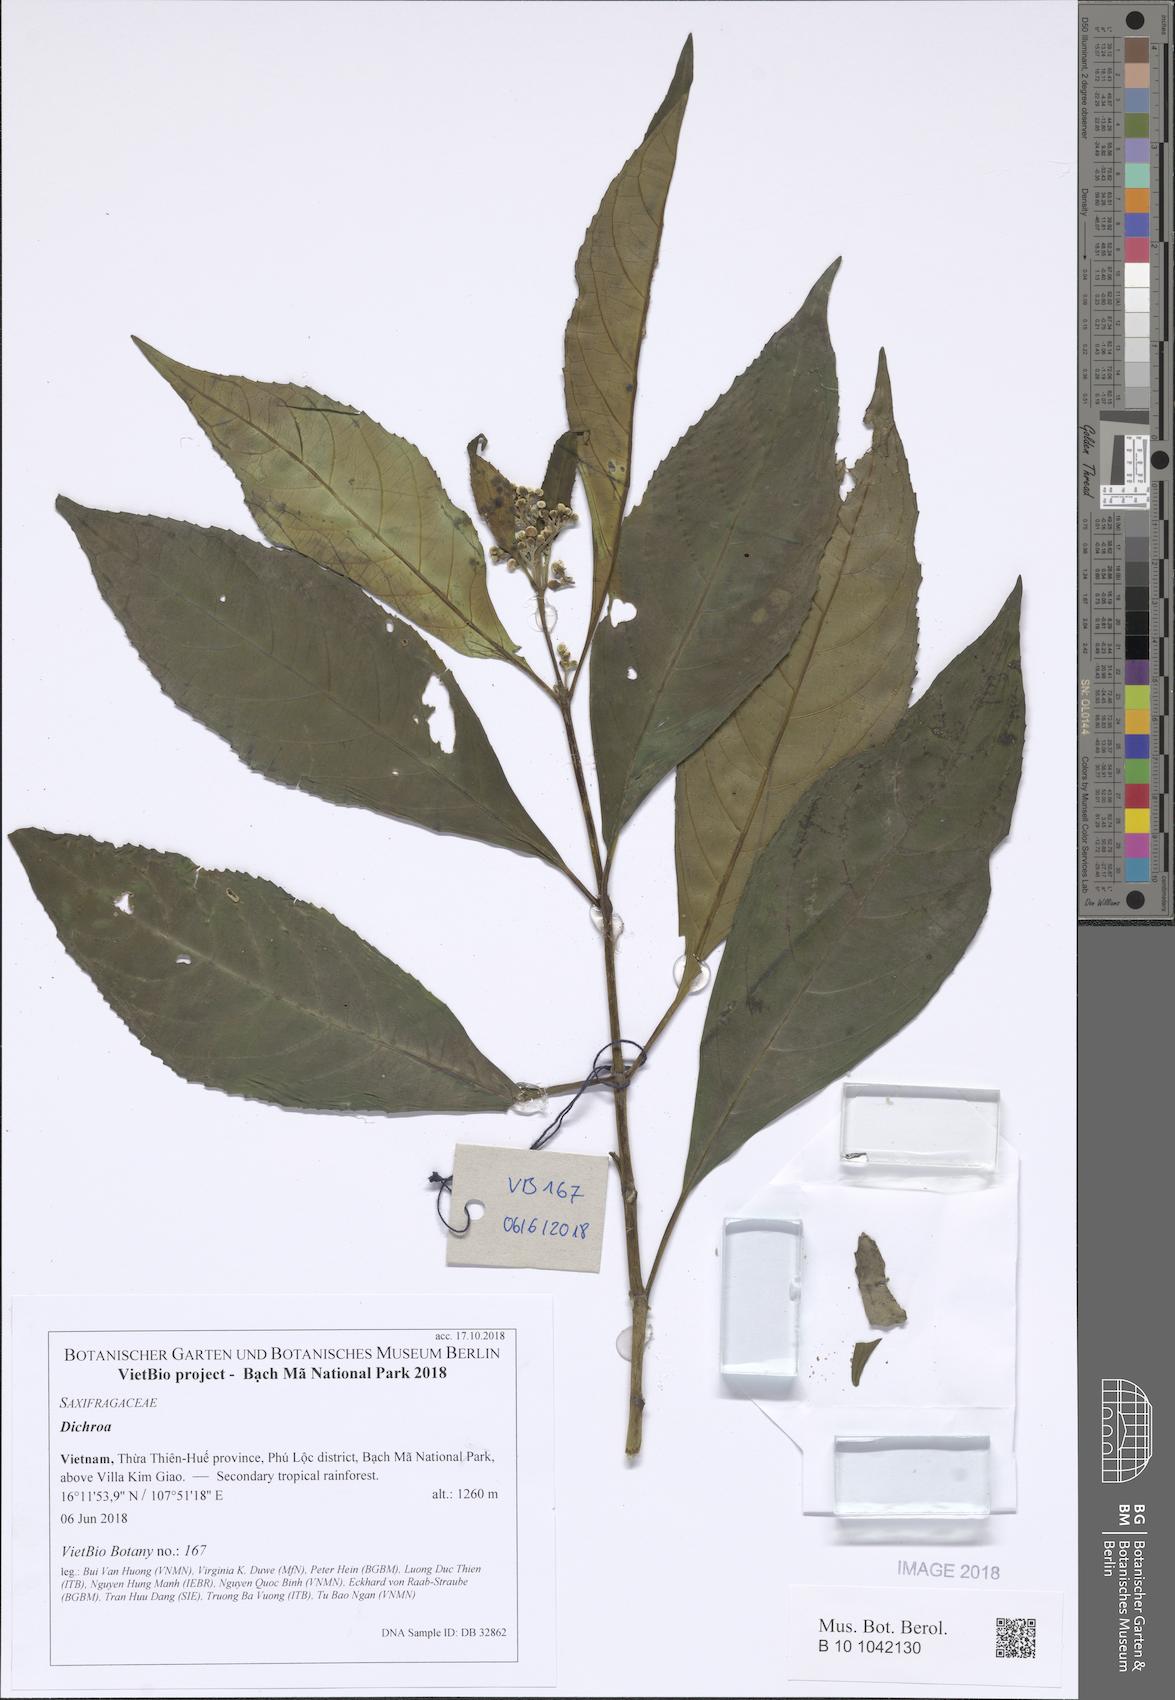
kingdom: Plantae
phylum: Tracheophyta
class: Magnoliopsida
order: Cornales
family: Hydrangeaceae
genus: Hydrangea
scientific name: Hydrangea
